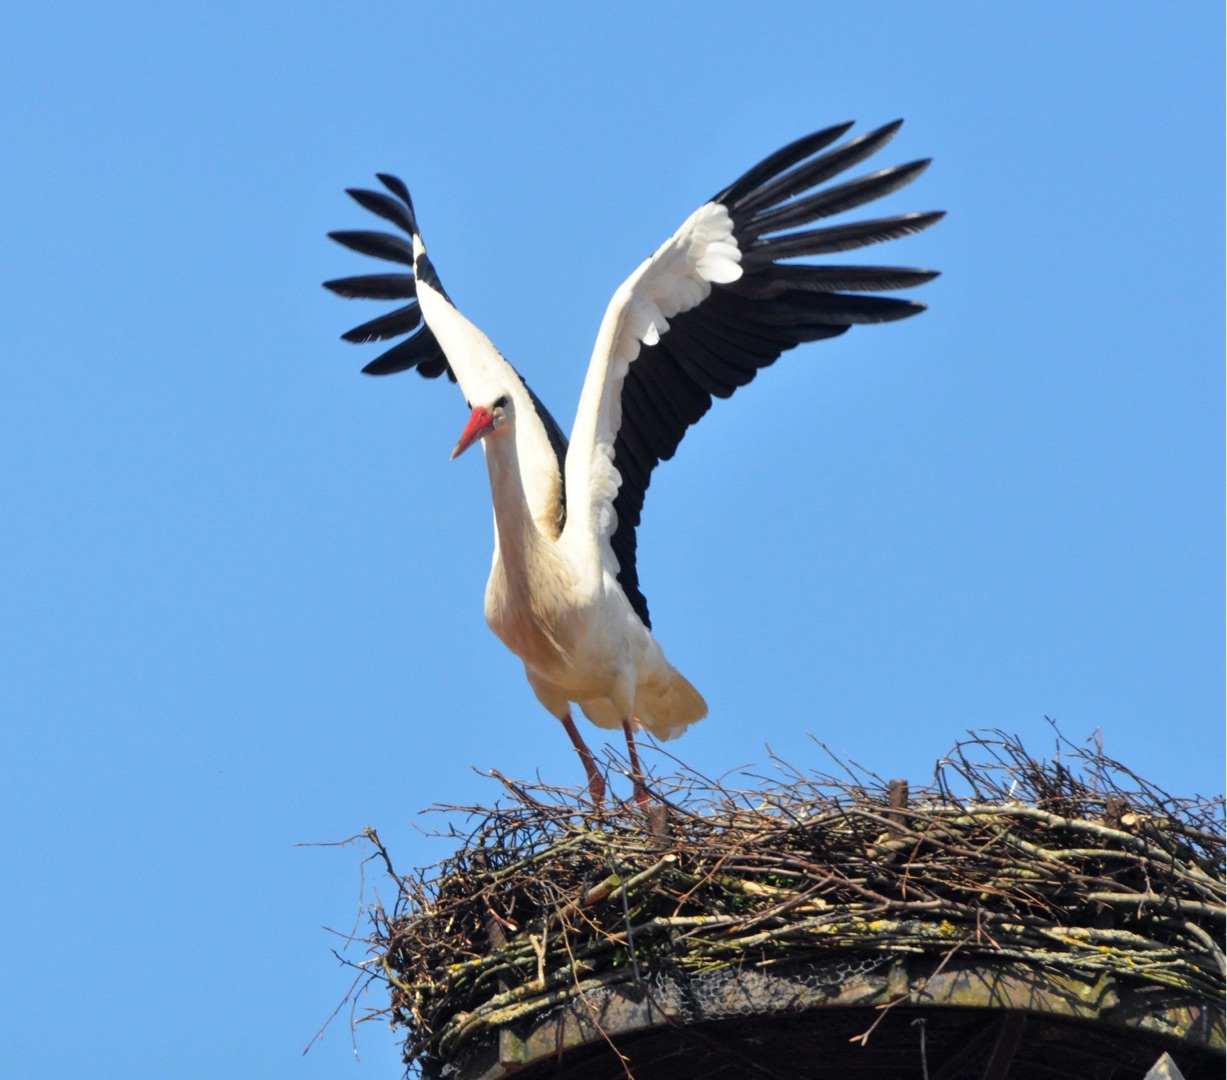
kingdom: Animalia
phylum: Chordata
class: Aves
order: Ciconiiformes
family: Ciconiidae
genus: Ciconia
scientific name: Ciconia ciconia
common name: Hvid stork
